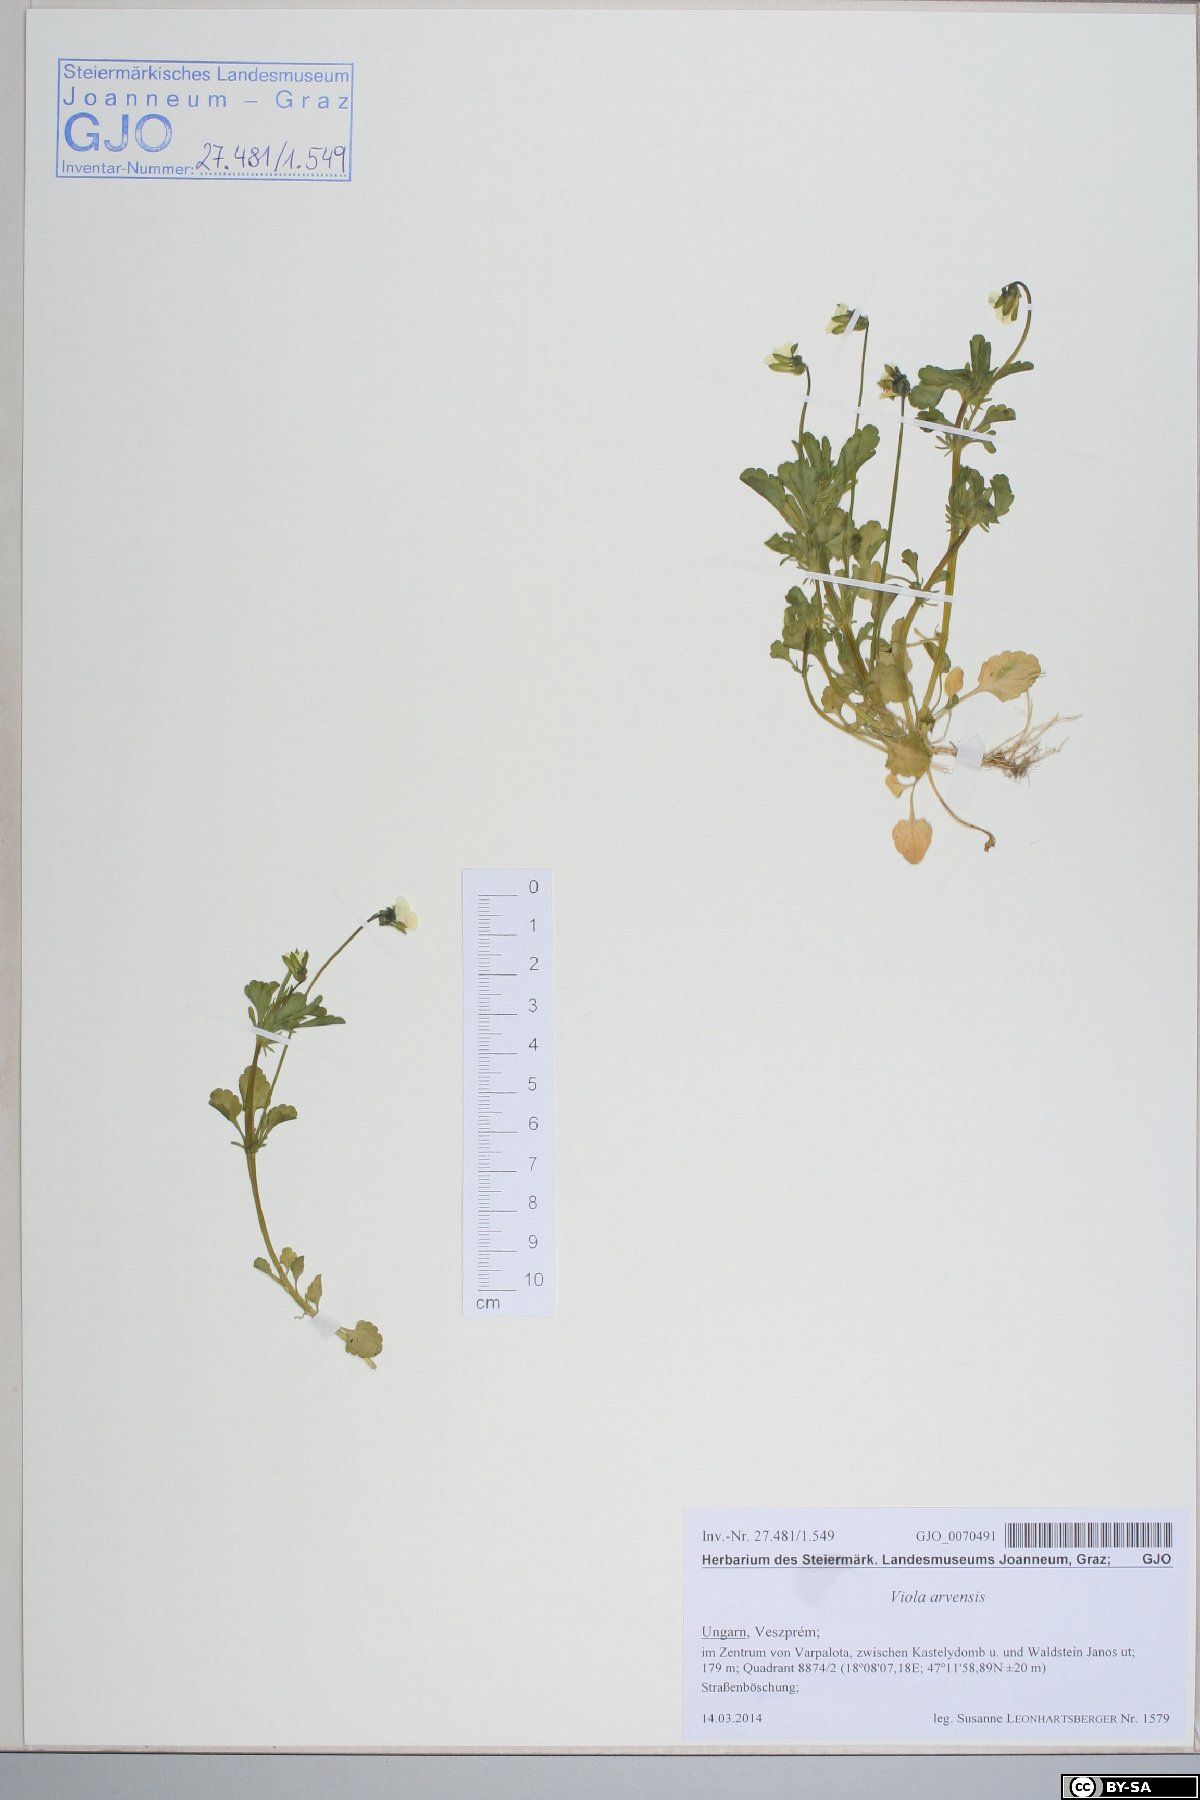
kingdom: Plantae
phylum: Tracheophyta
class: Magnoliopsida
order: Malpighiales
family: Violaceae
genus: Viola
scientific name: Viola arvensis
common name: Field pansy
